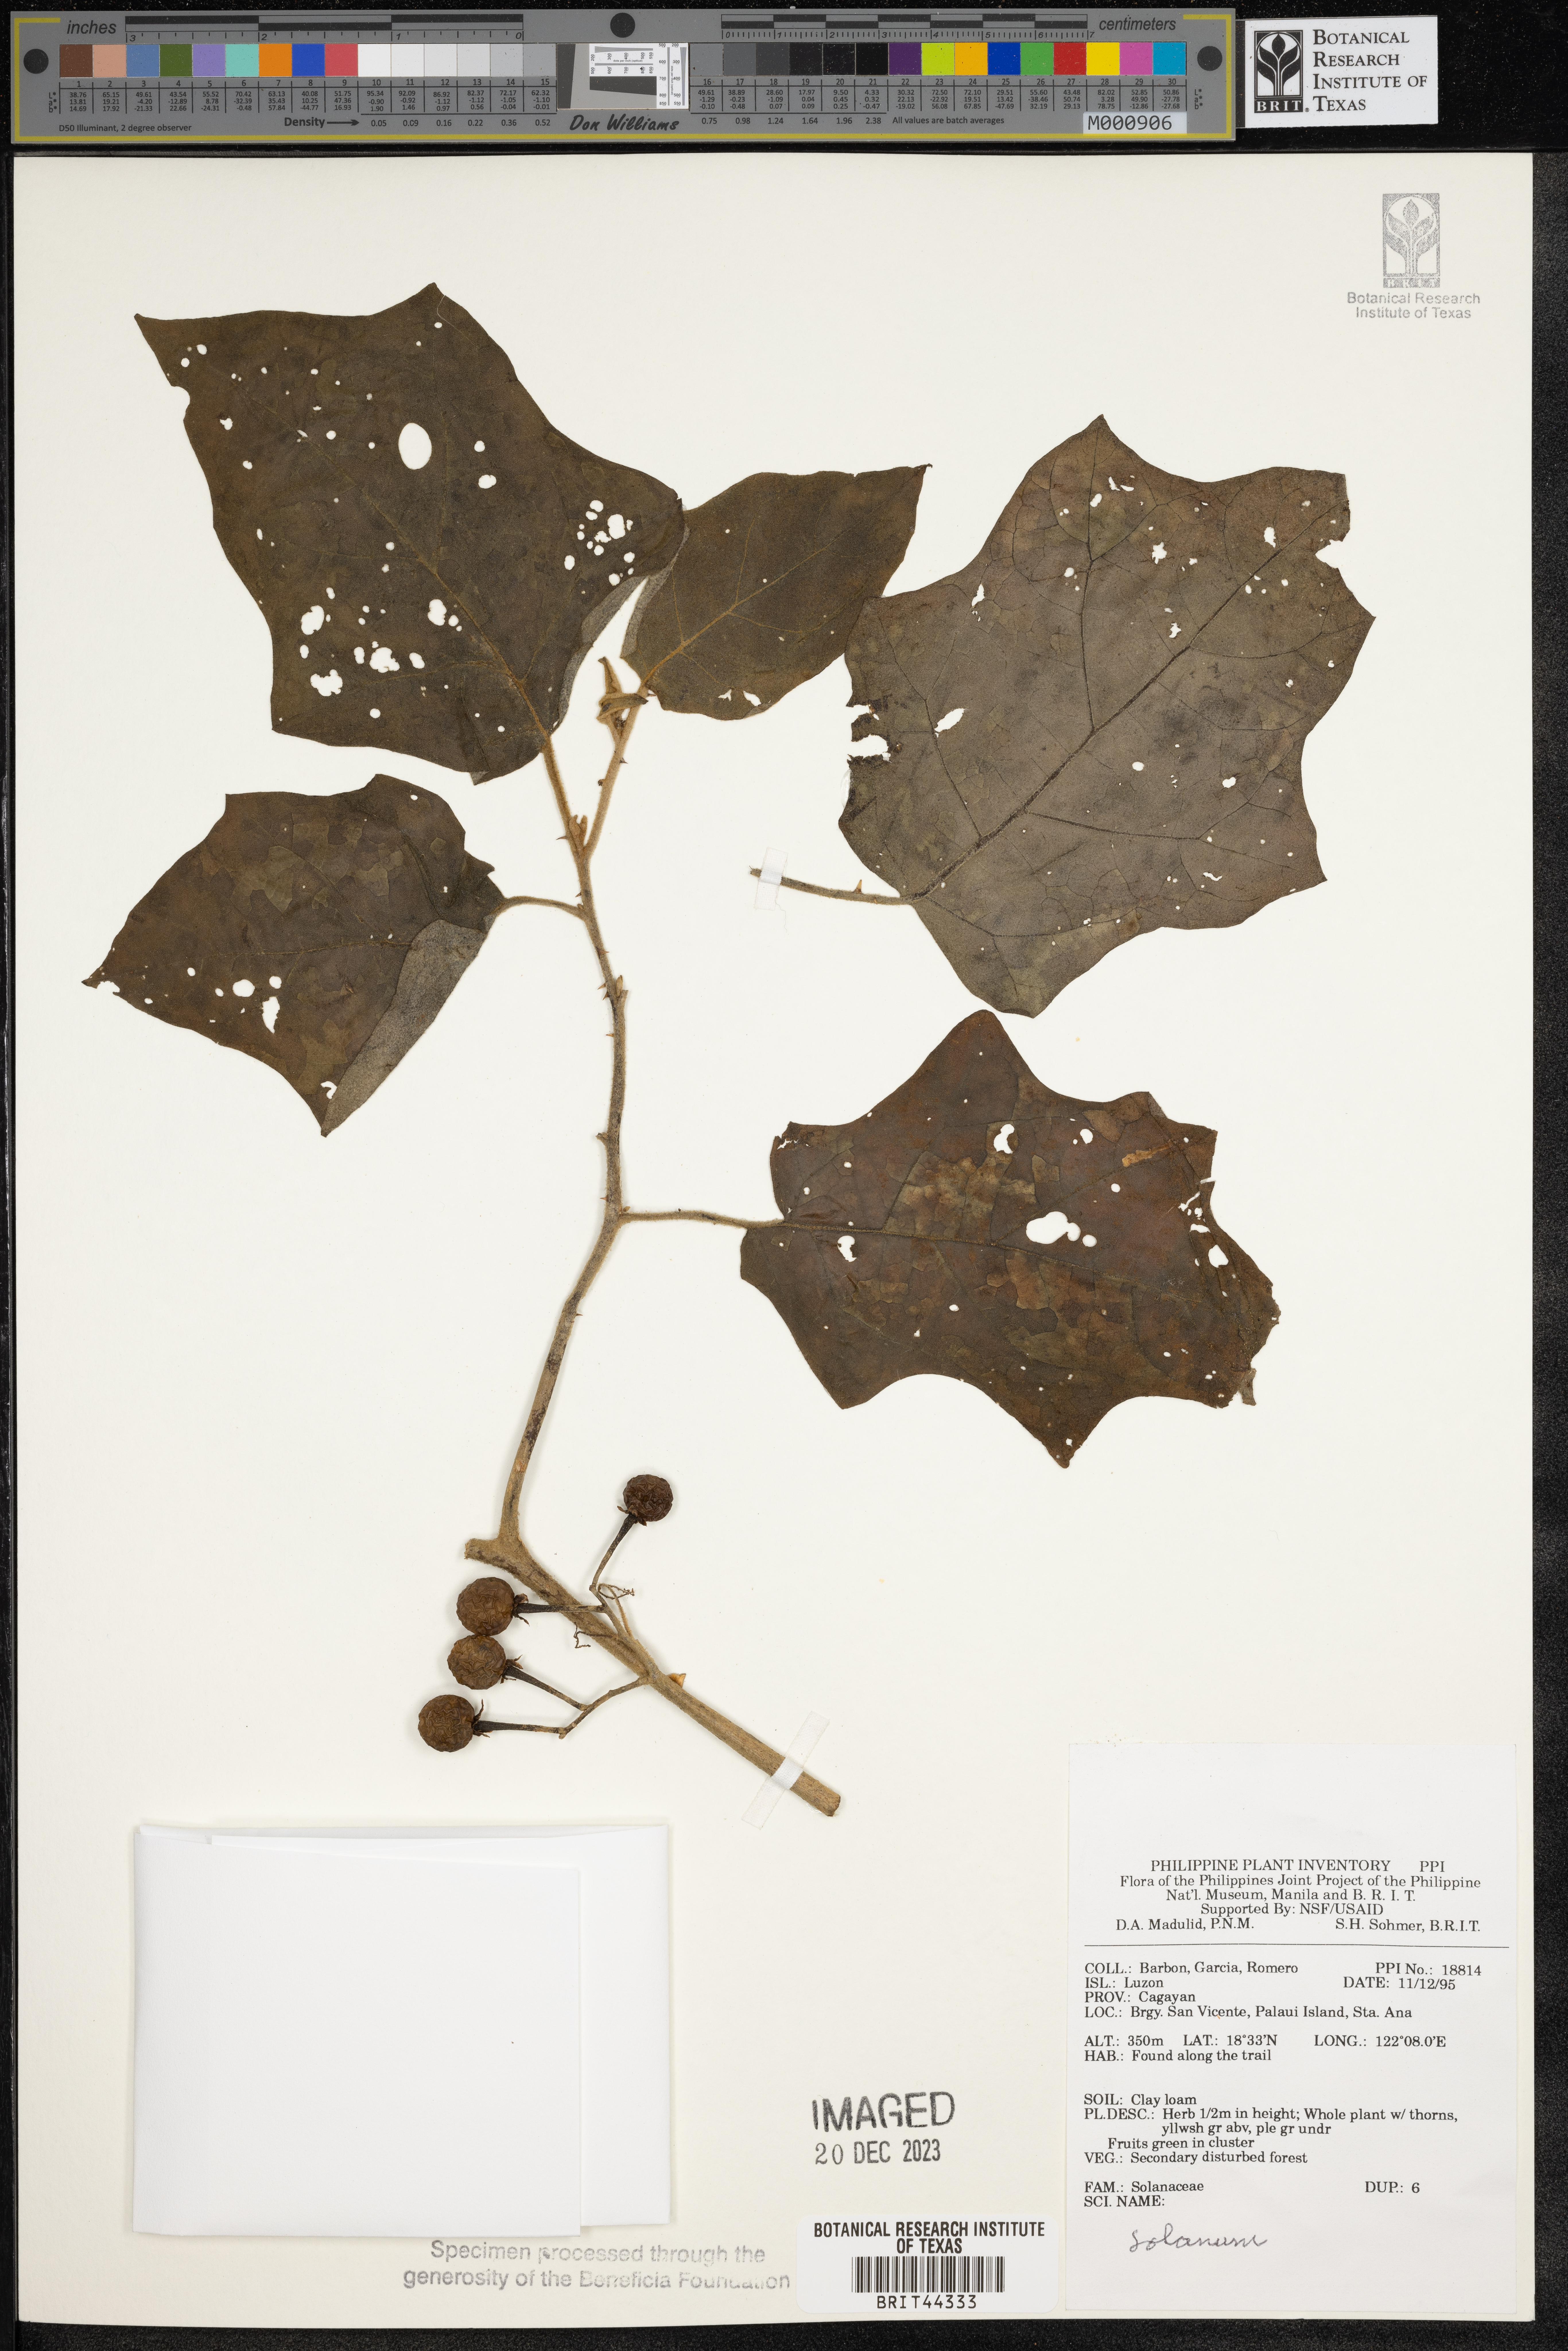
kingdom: Plantae
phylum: Tracheophyta
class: Magnoliopsida
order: Solanales
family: Solanaceae
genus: Solanum
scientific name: Solanum
